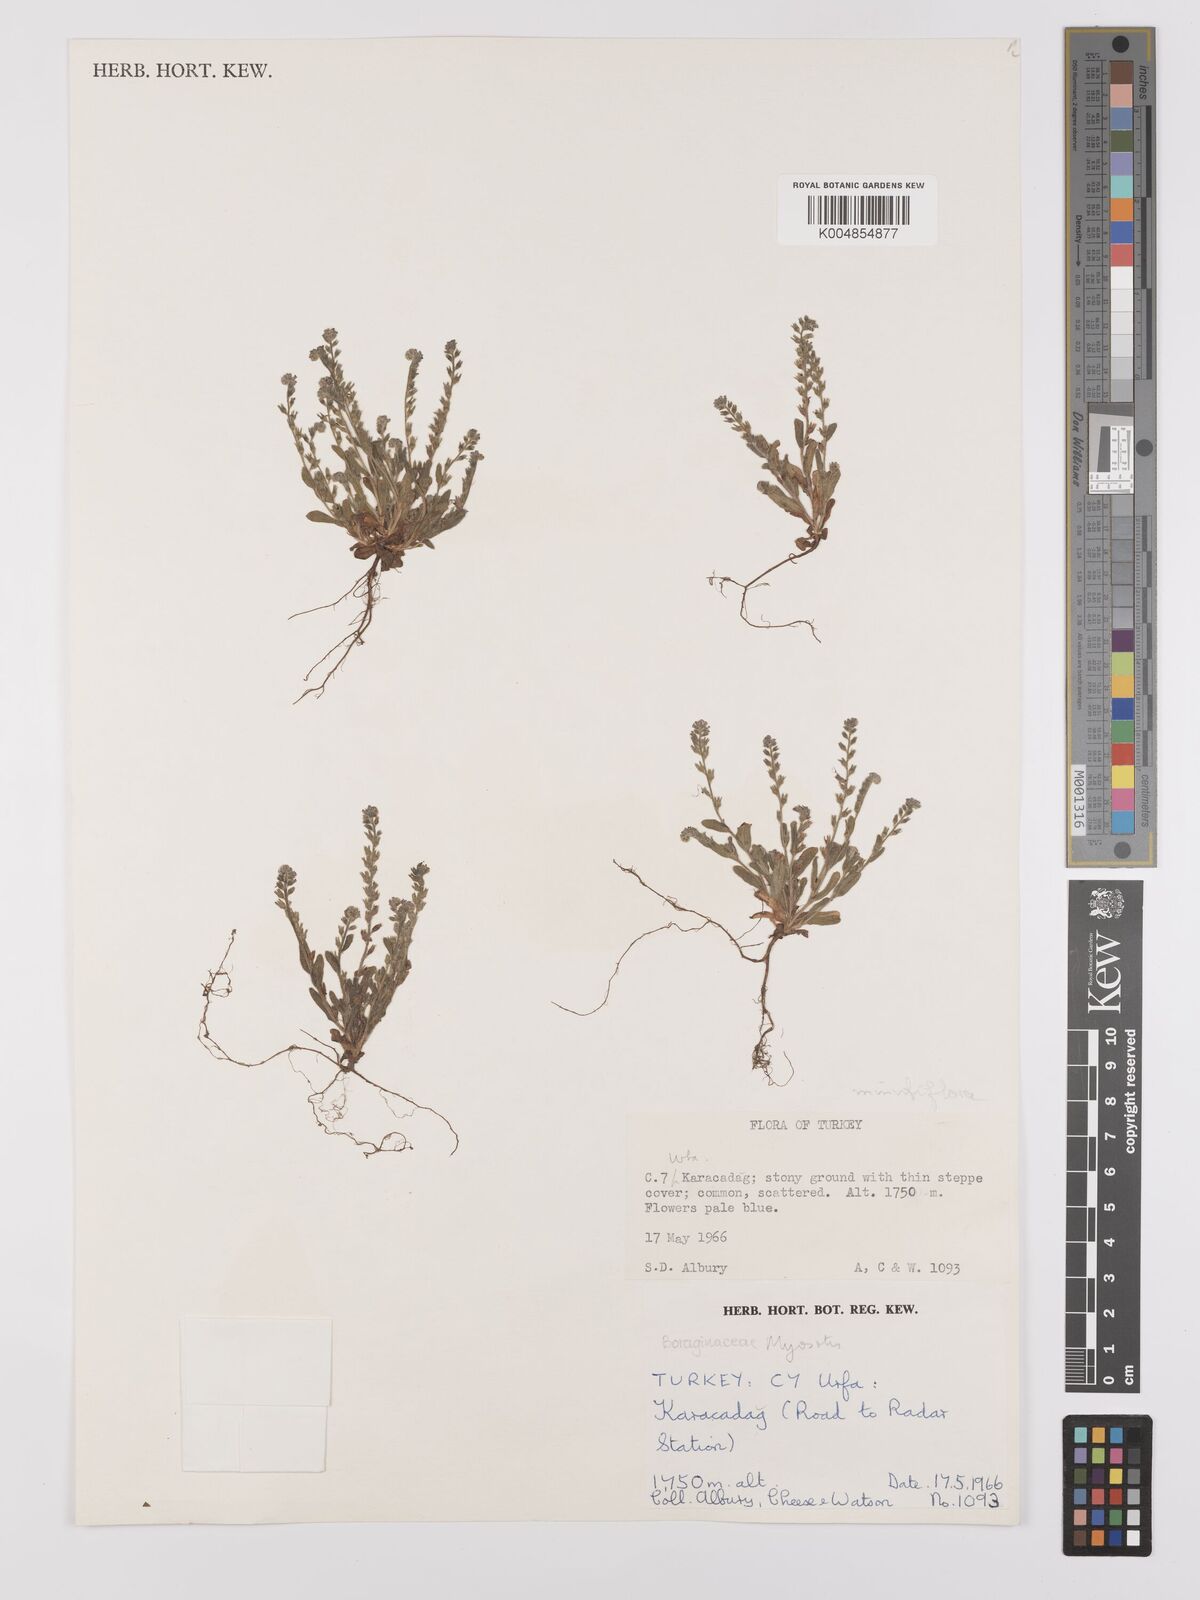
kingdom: Plantae
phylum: Tracheophyta
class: Magnoliopsida
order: Boraginales
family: Boraginaceae
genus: Myosotis
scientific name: Myosotis minutiflora
